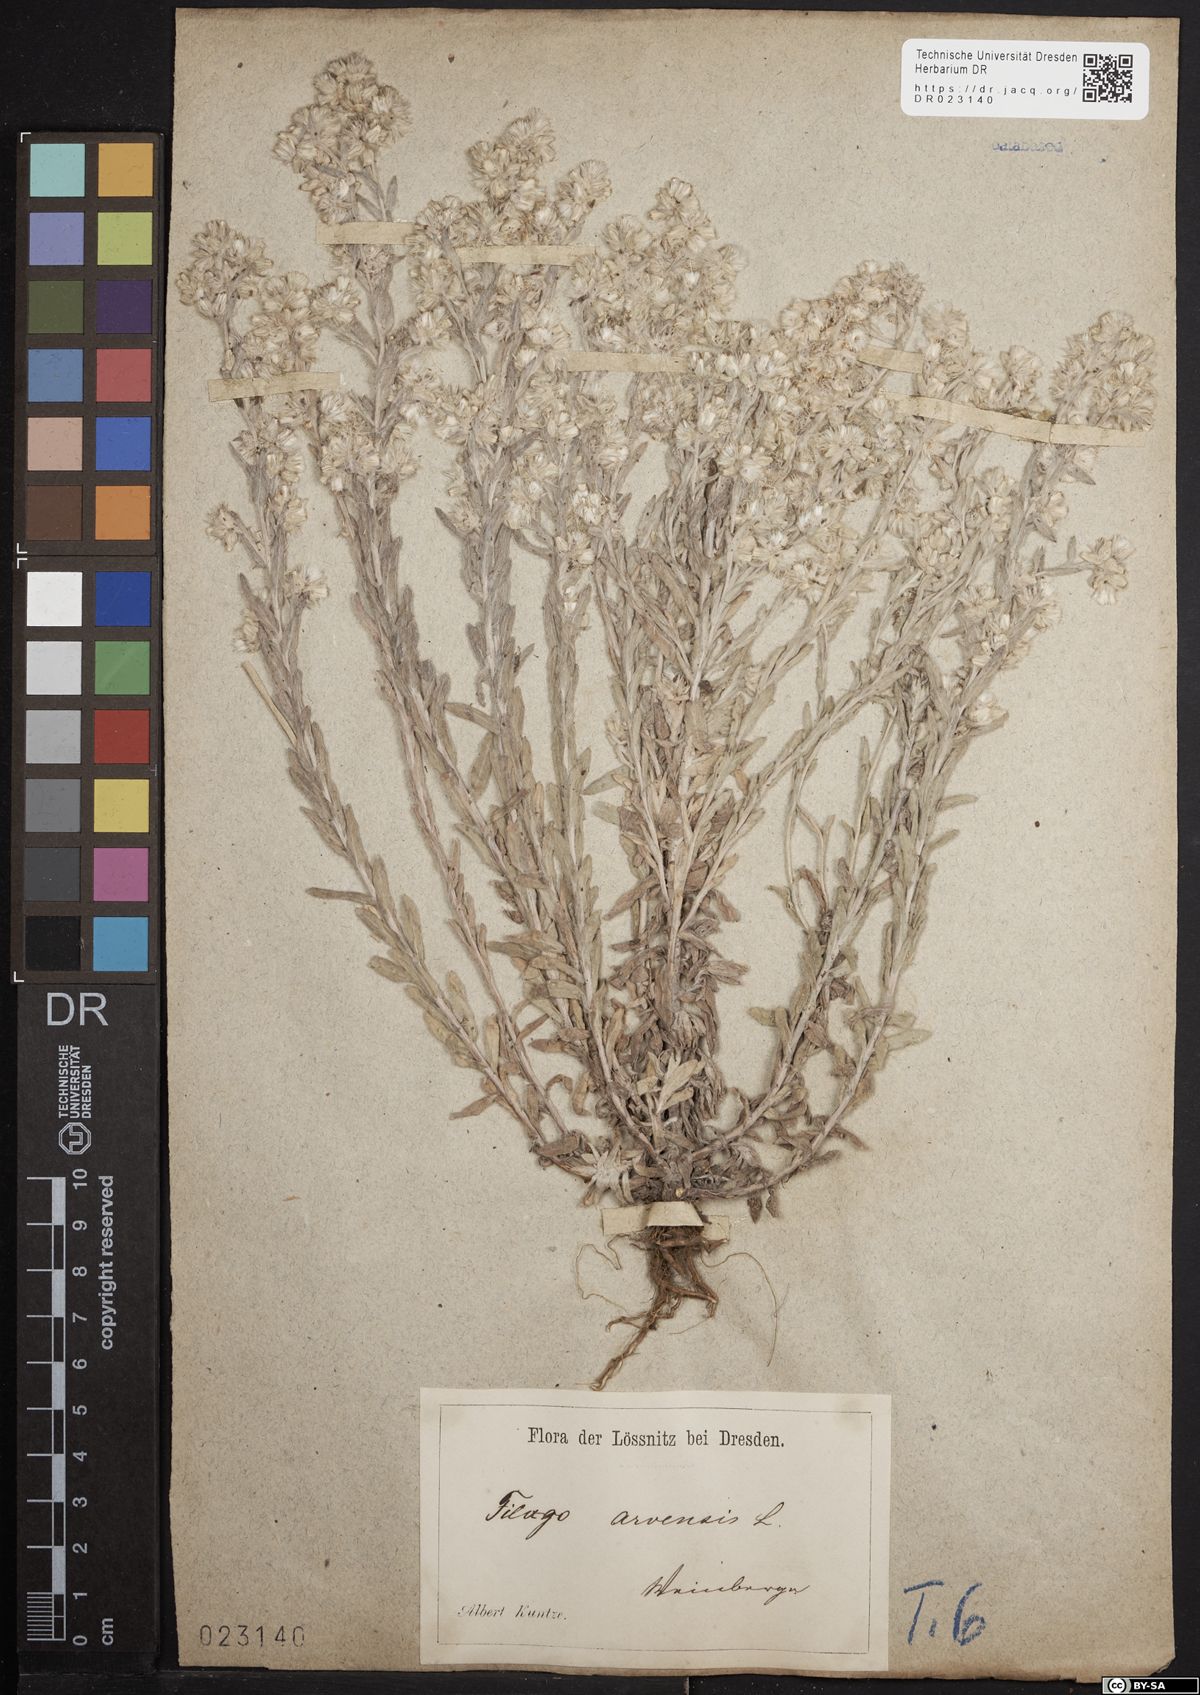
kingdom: Plantae
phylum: Tracheophyta
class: Magnoliopsida
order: Asterales
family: Asteraceae
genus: Filago
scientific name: Filago arvensis
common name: Field cudweed
